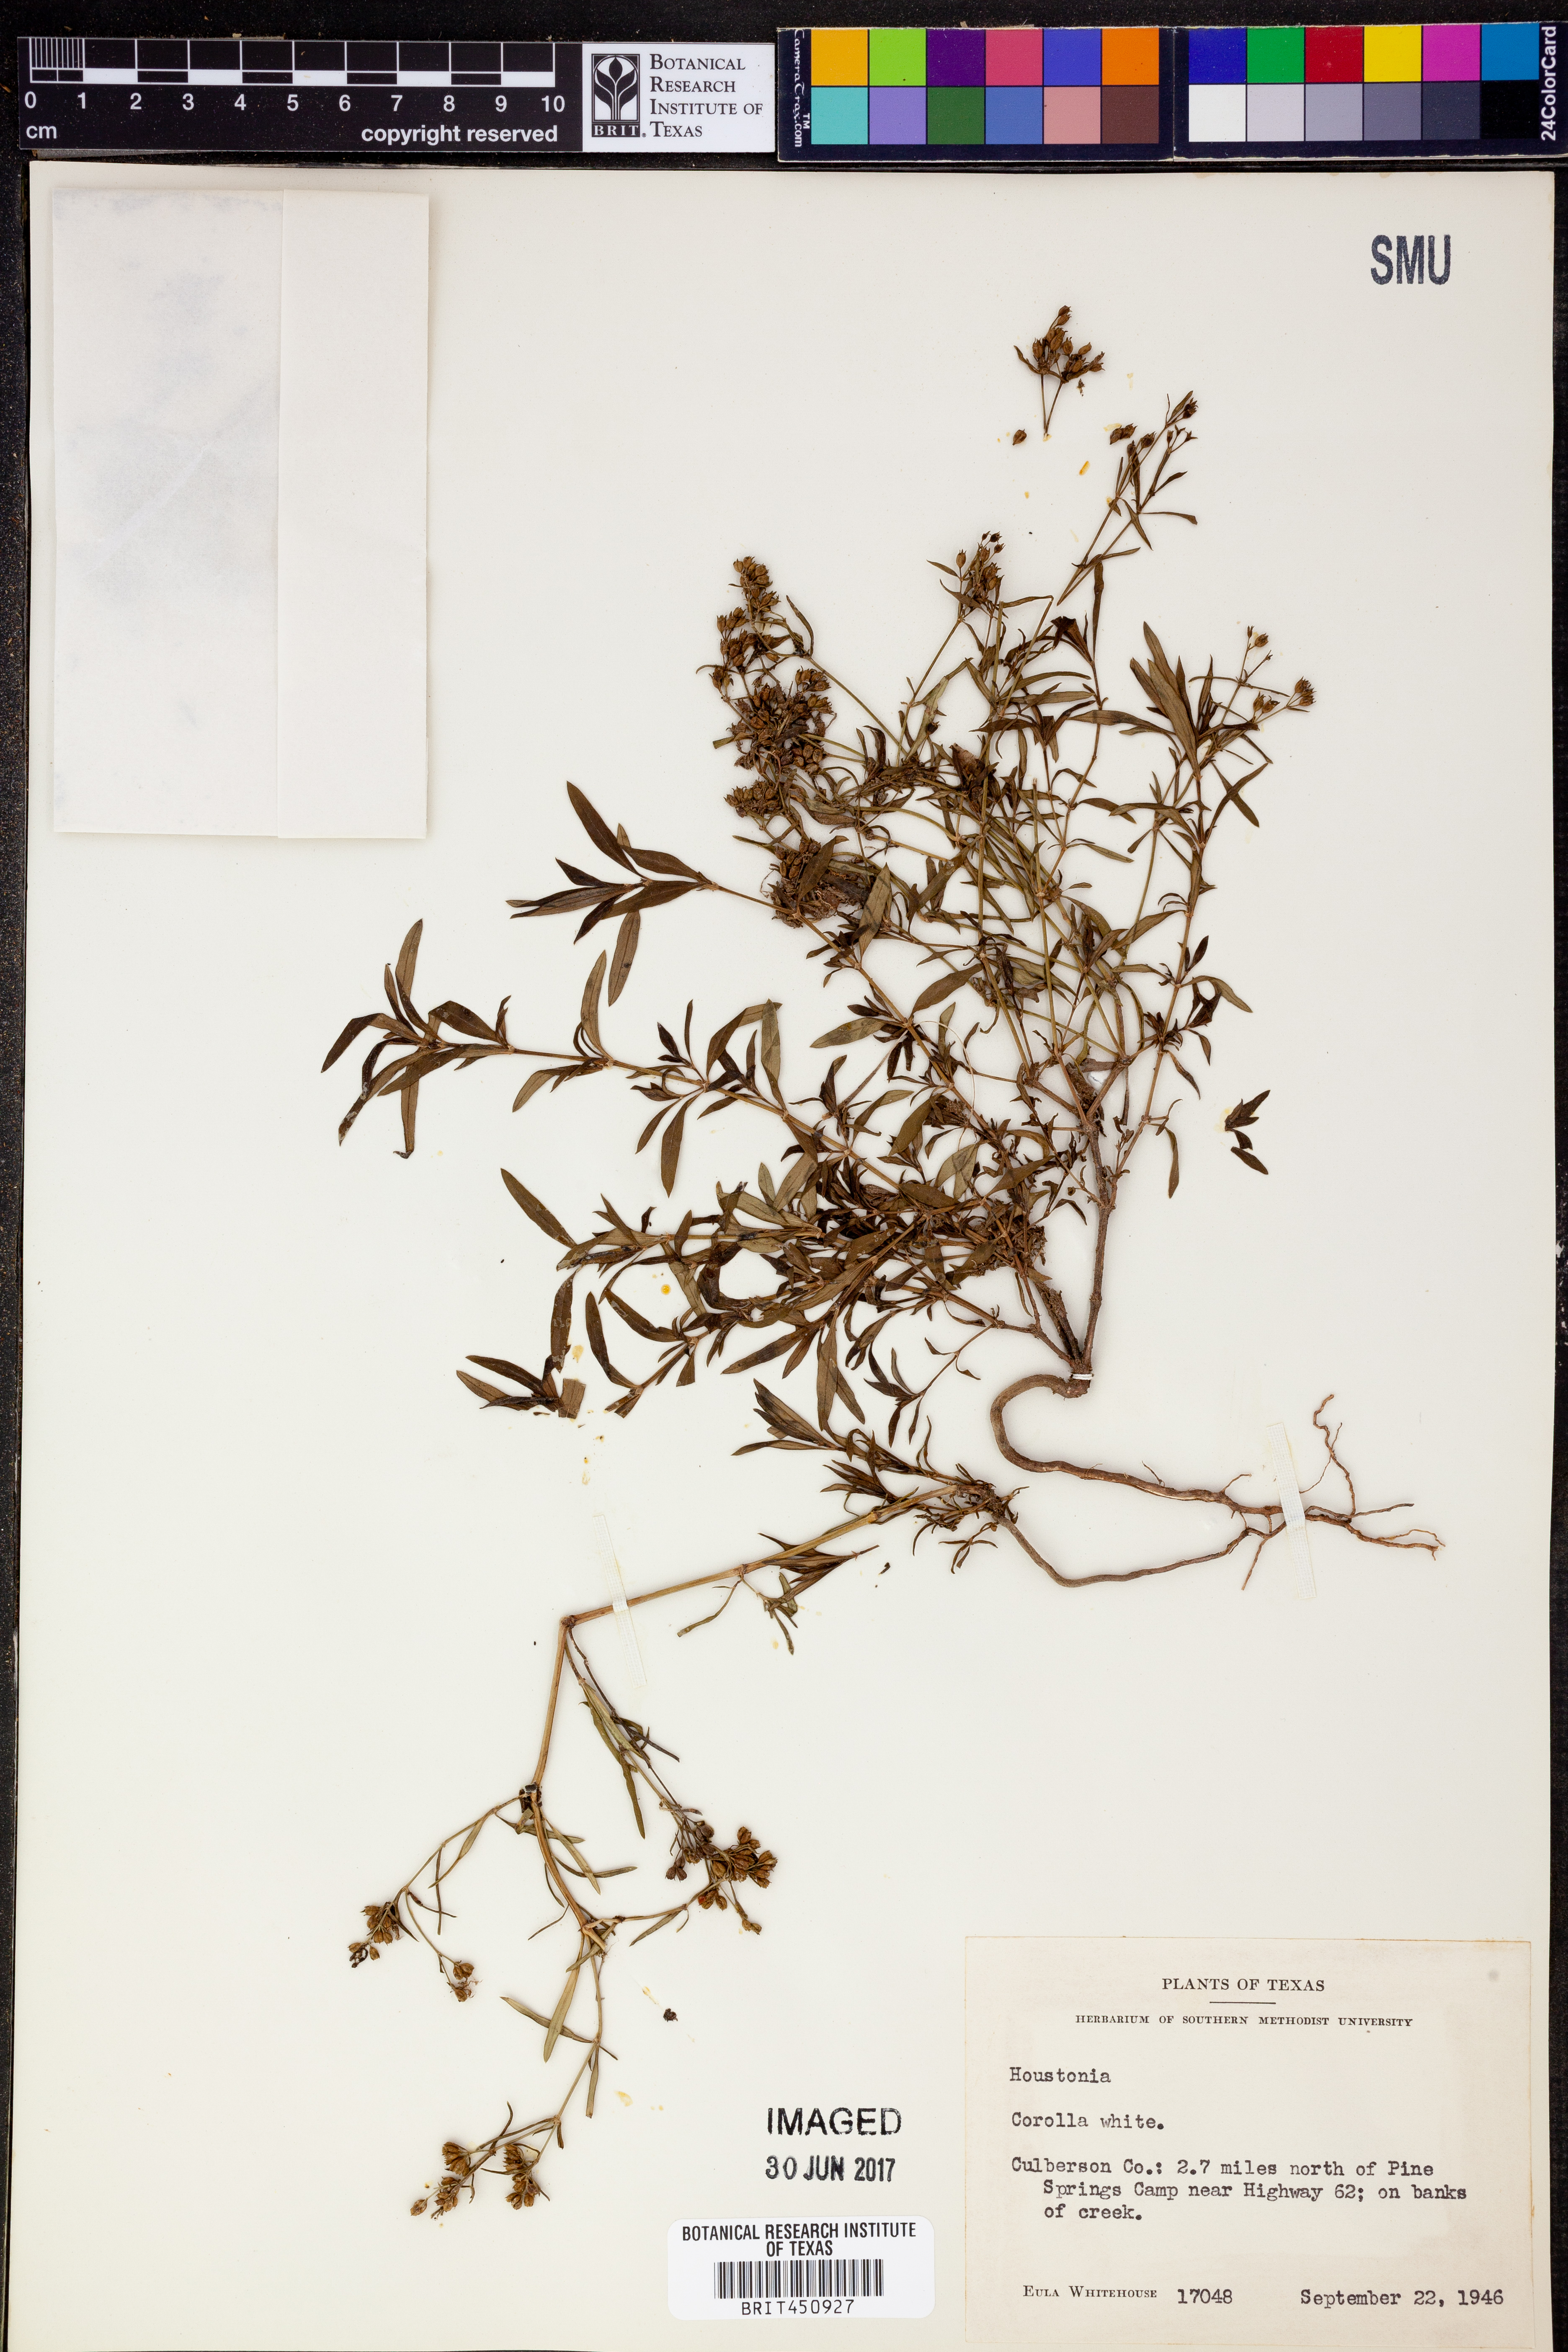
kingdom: Plantae
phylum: Tracheophyta
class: Magnoliopsida
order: Gentianales
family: Rubiaceae
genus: Houstonia
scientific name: Houstonia
